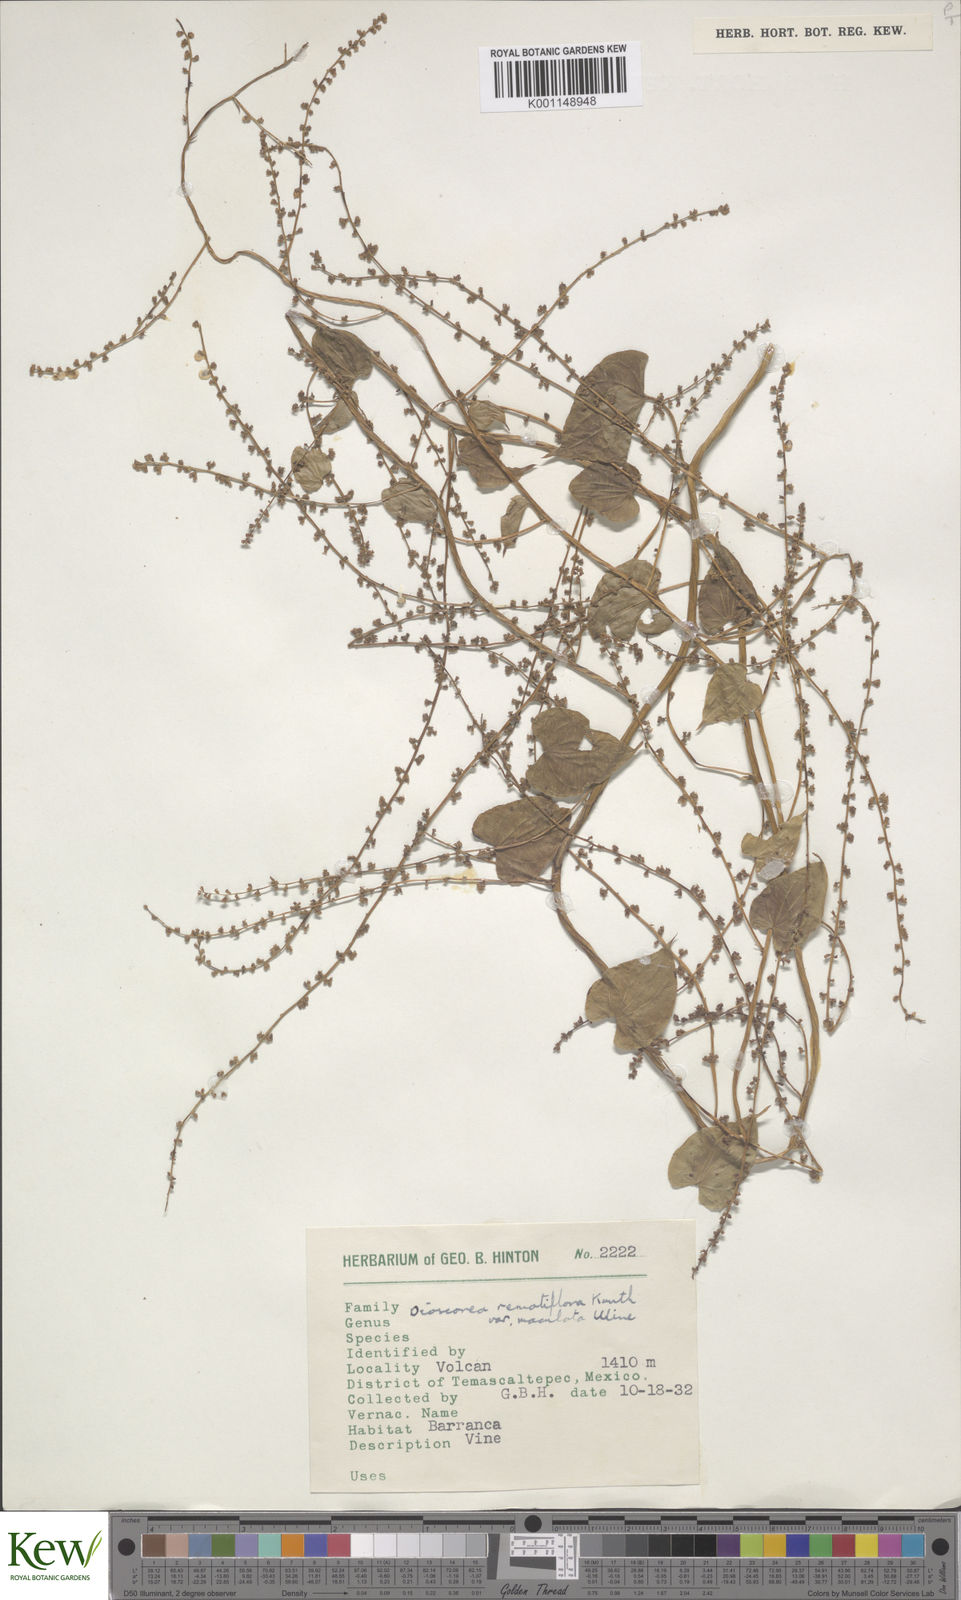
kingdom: Plantae
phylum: Tracheophyta
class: Liliopsida
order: Dioscoreales
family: Dioscoreaceae
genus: Dioscorea
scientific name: Dioscorea remotiflora
